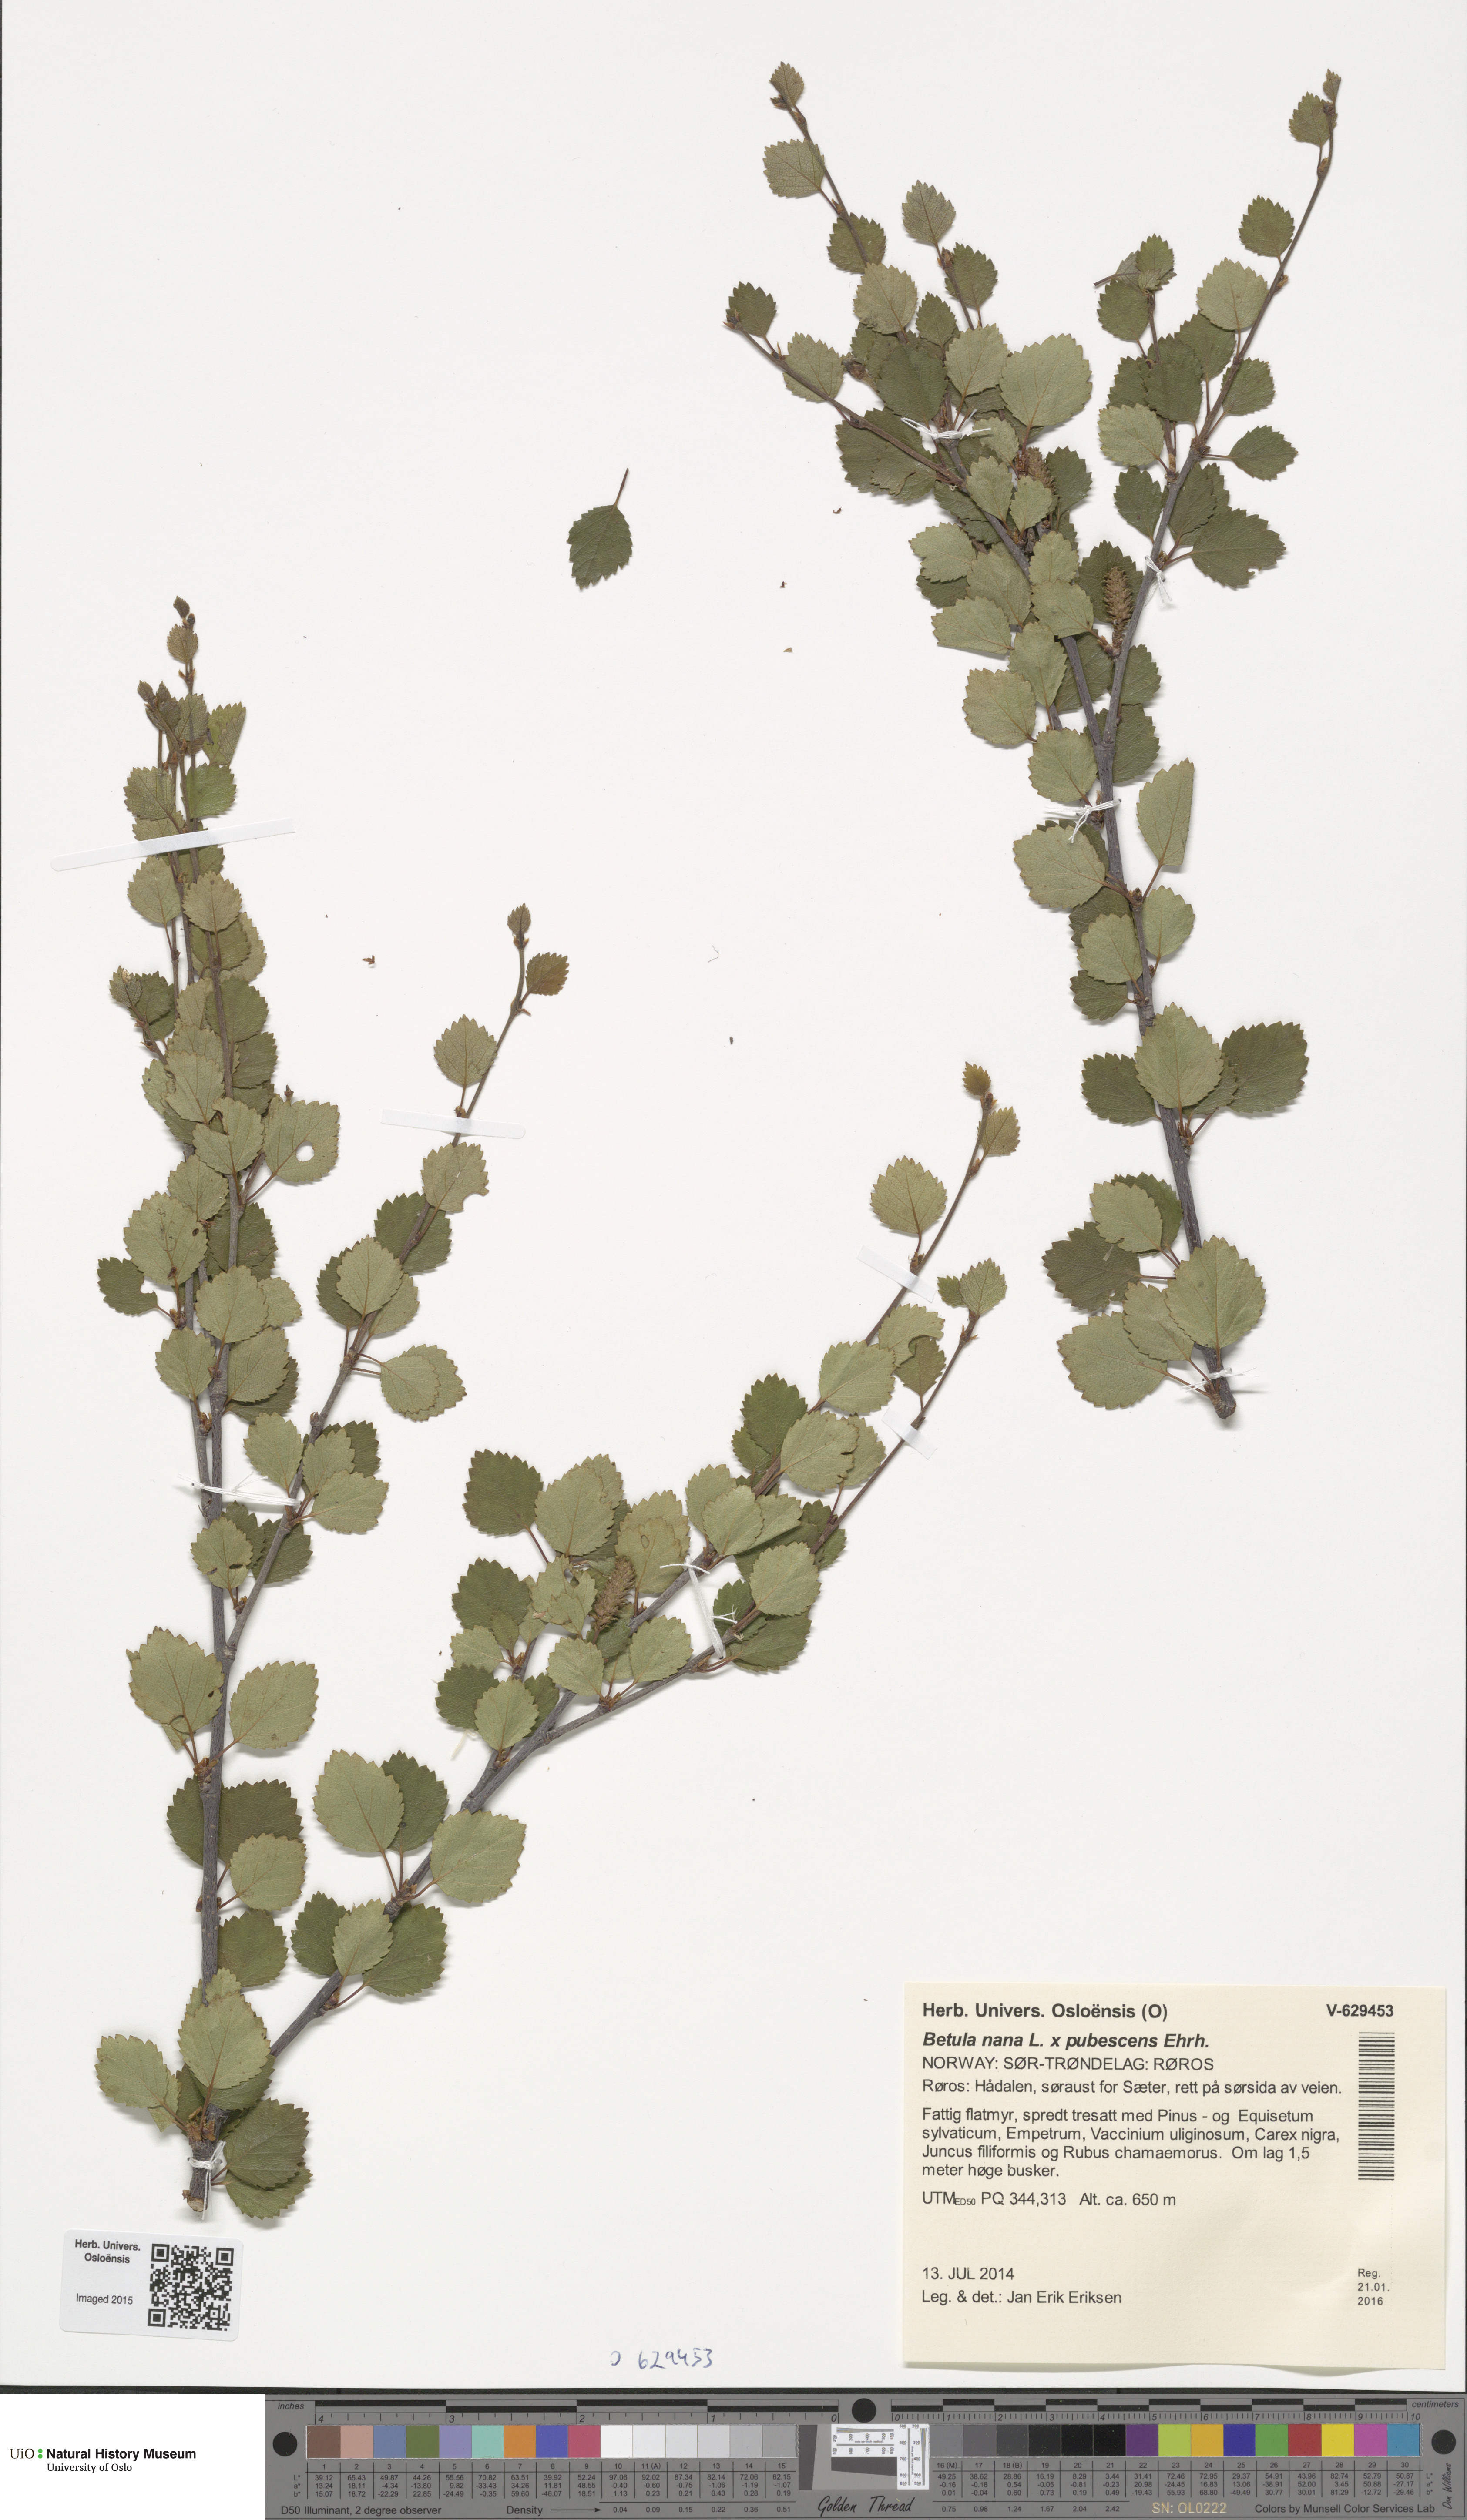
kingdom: Plantae
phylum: Tracheophyta
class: Magnoliopsida
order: Fagales
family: Betulaceae
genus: Betula
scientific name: Betula
